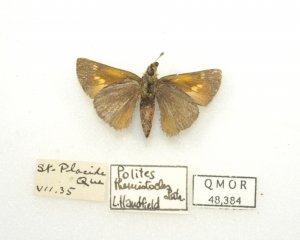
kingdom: Animalia
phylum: Arthropoda
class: Insecta
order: Lepidoptera
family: Hesperiidae
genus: Polites
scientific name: Polites themistocles
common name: Tawny-edged Skipper
